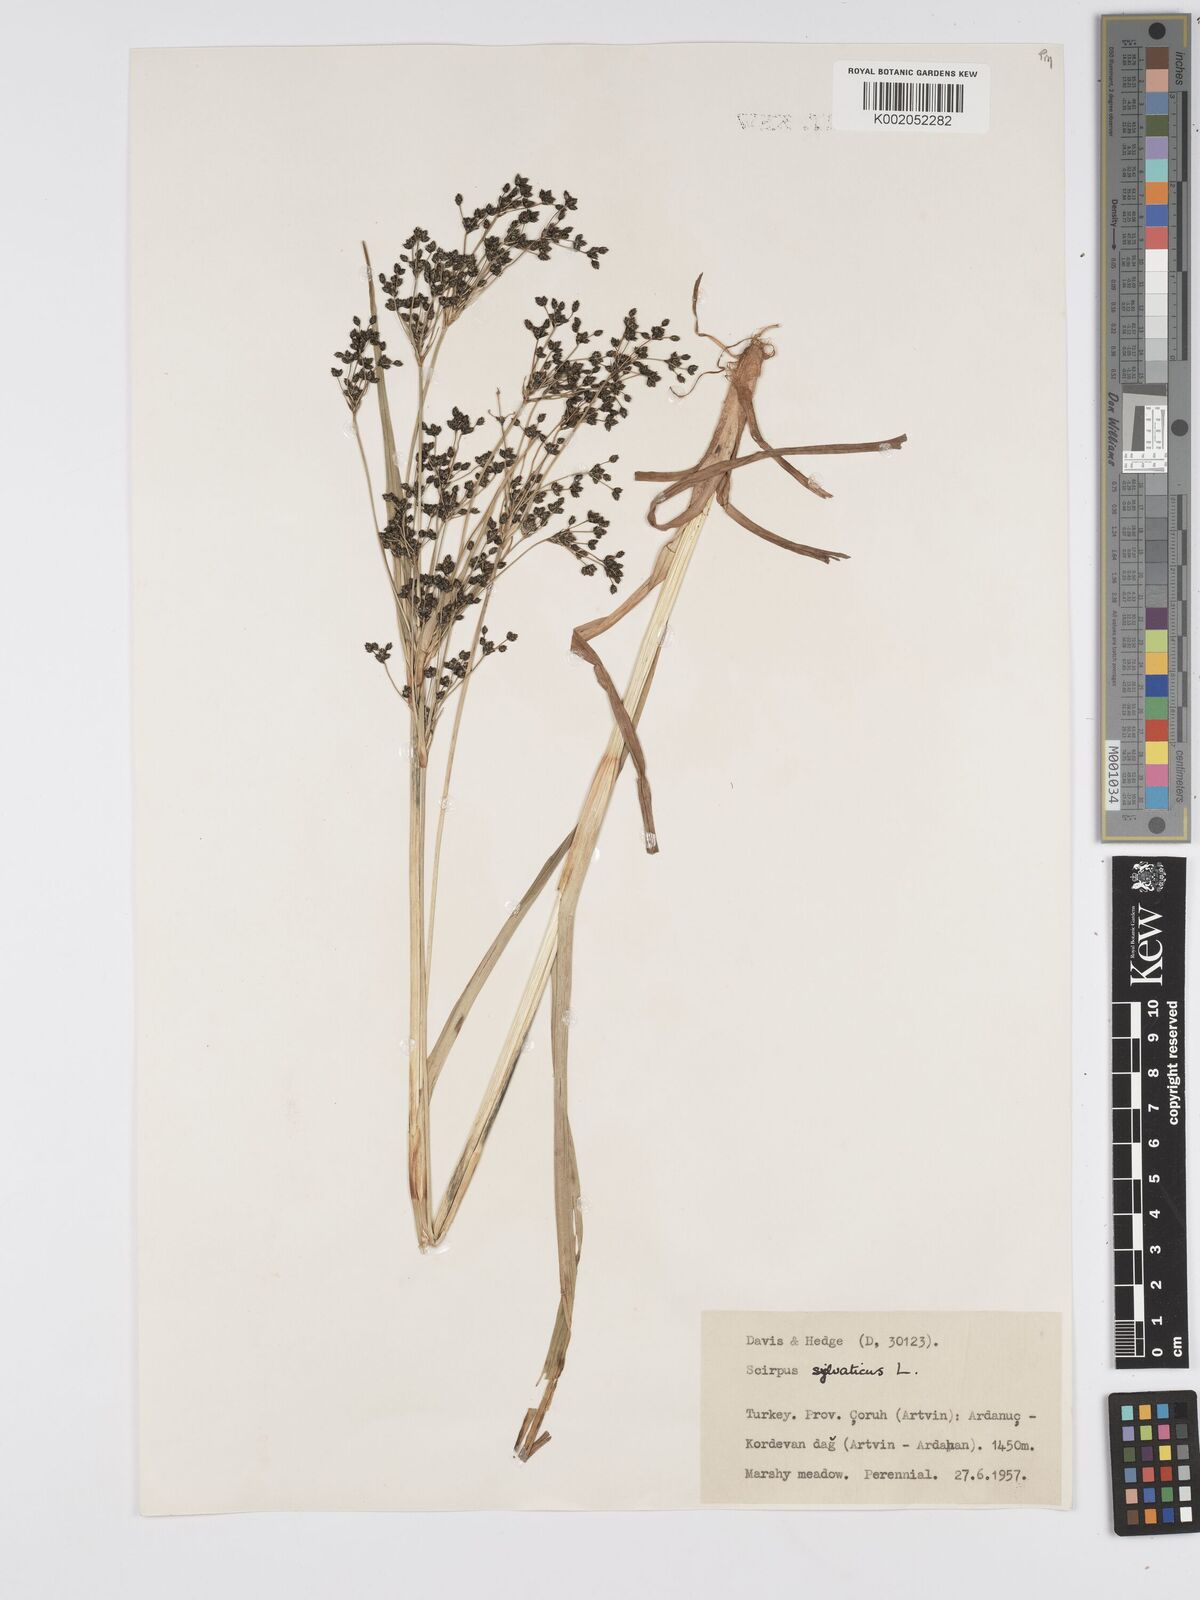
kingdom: Plantae
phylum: Tracheophyta
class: Liliopsida
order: Poales
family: Cyperaceae
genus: Scirpus
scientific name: Scirpus sylvaticus
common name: Wood club-rush
